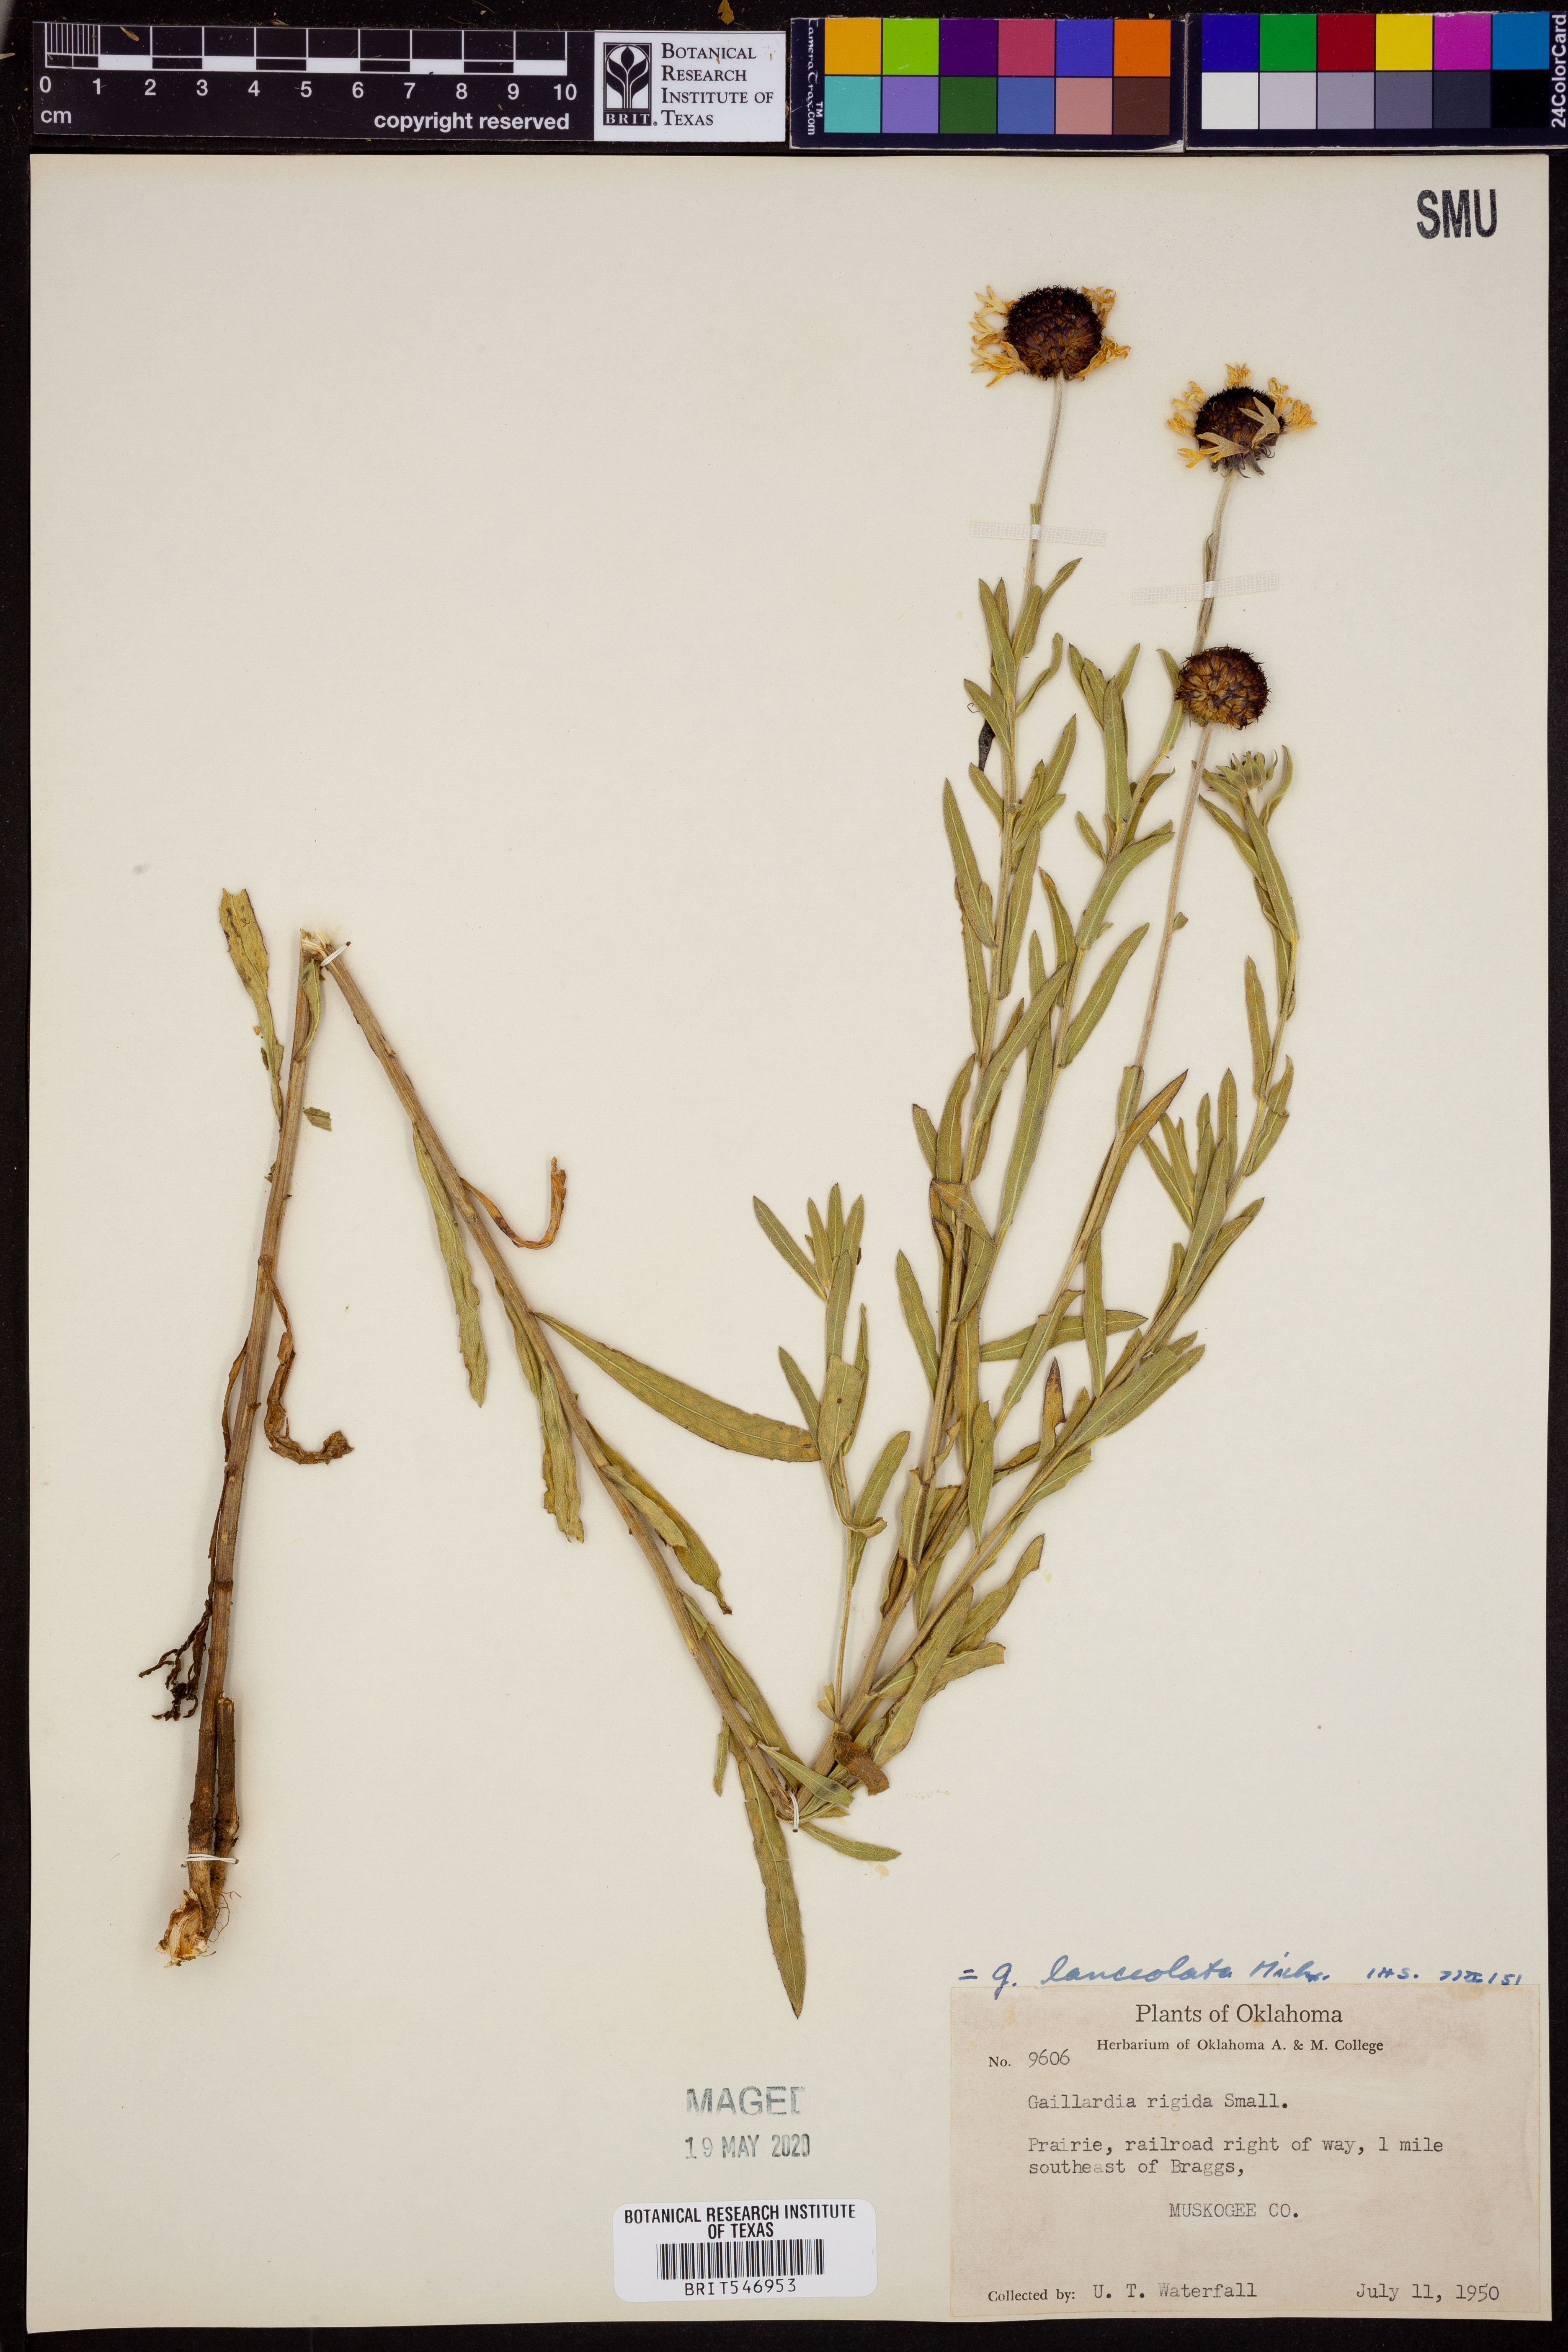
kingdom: Plantae
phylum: Tracheophyta
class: Magnoliopsida
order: Asterales
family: Asteraceae
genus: Gaillardia
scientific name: Gaillardia aestivalis
